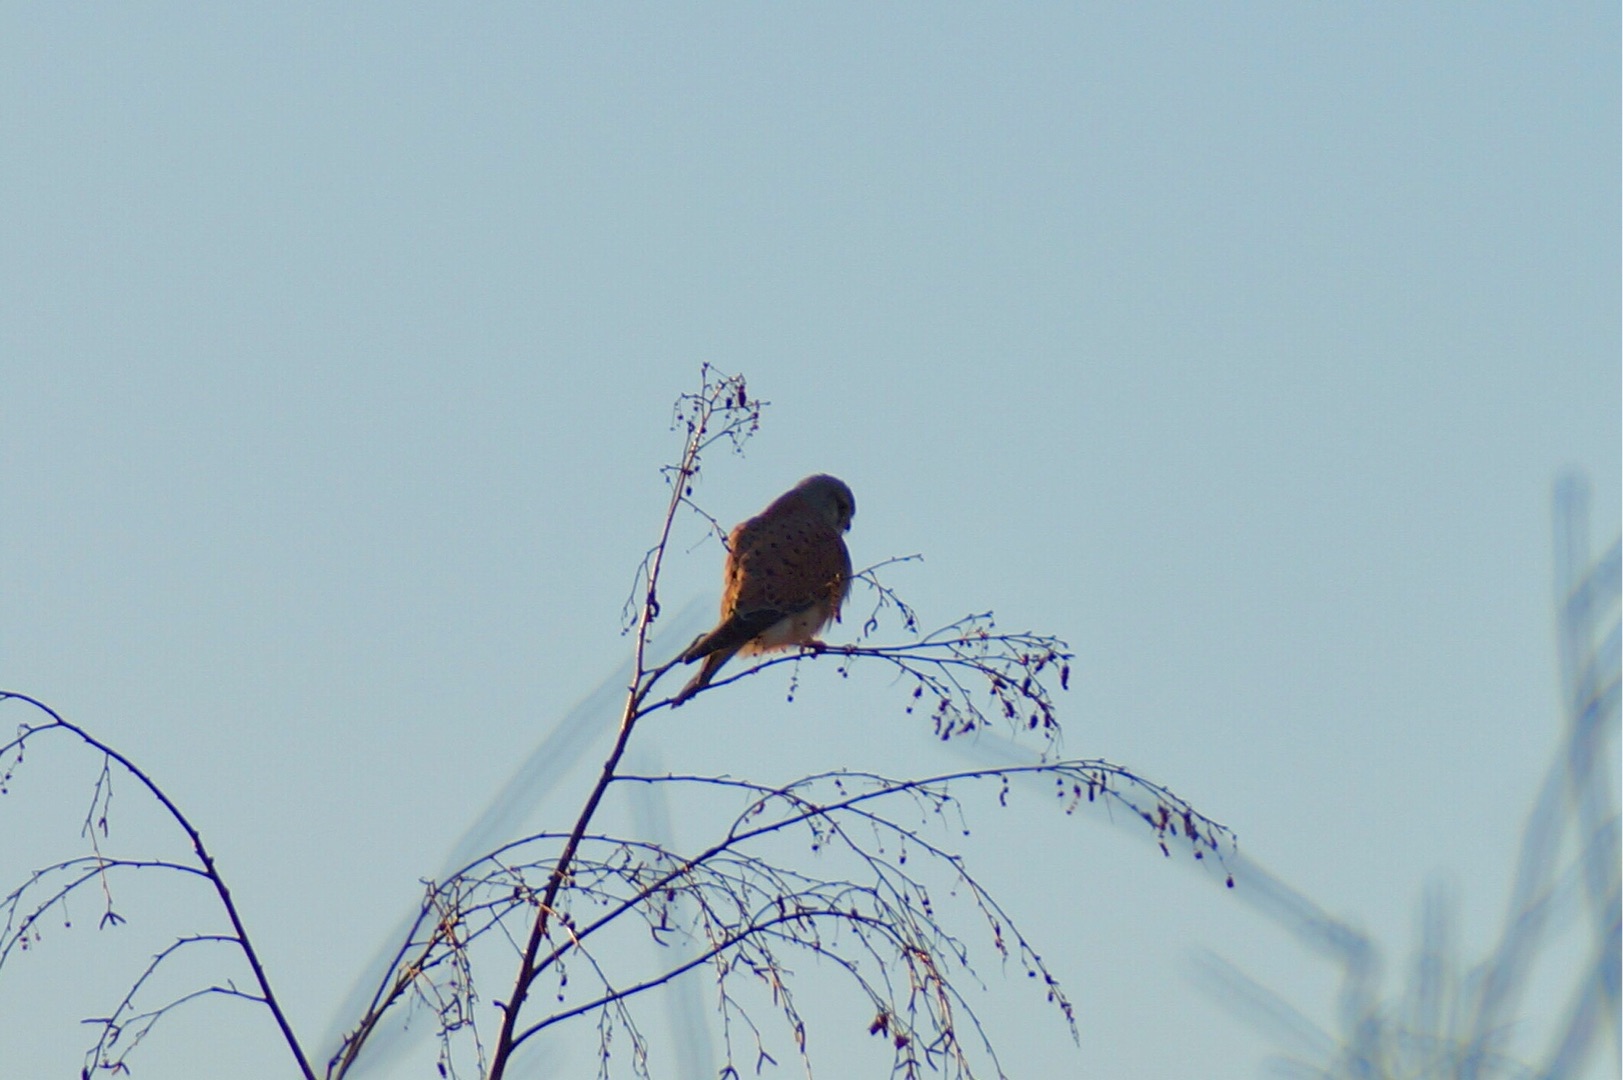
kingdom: Animalia
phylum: Chordata
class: Aves
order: Falconiformes
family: Falconidae
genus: Falco
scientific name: Falco tinnunculus
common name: Tårnfalk
